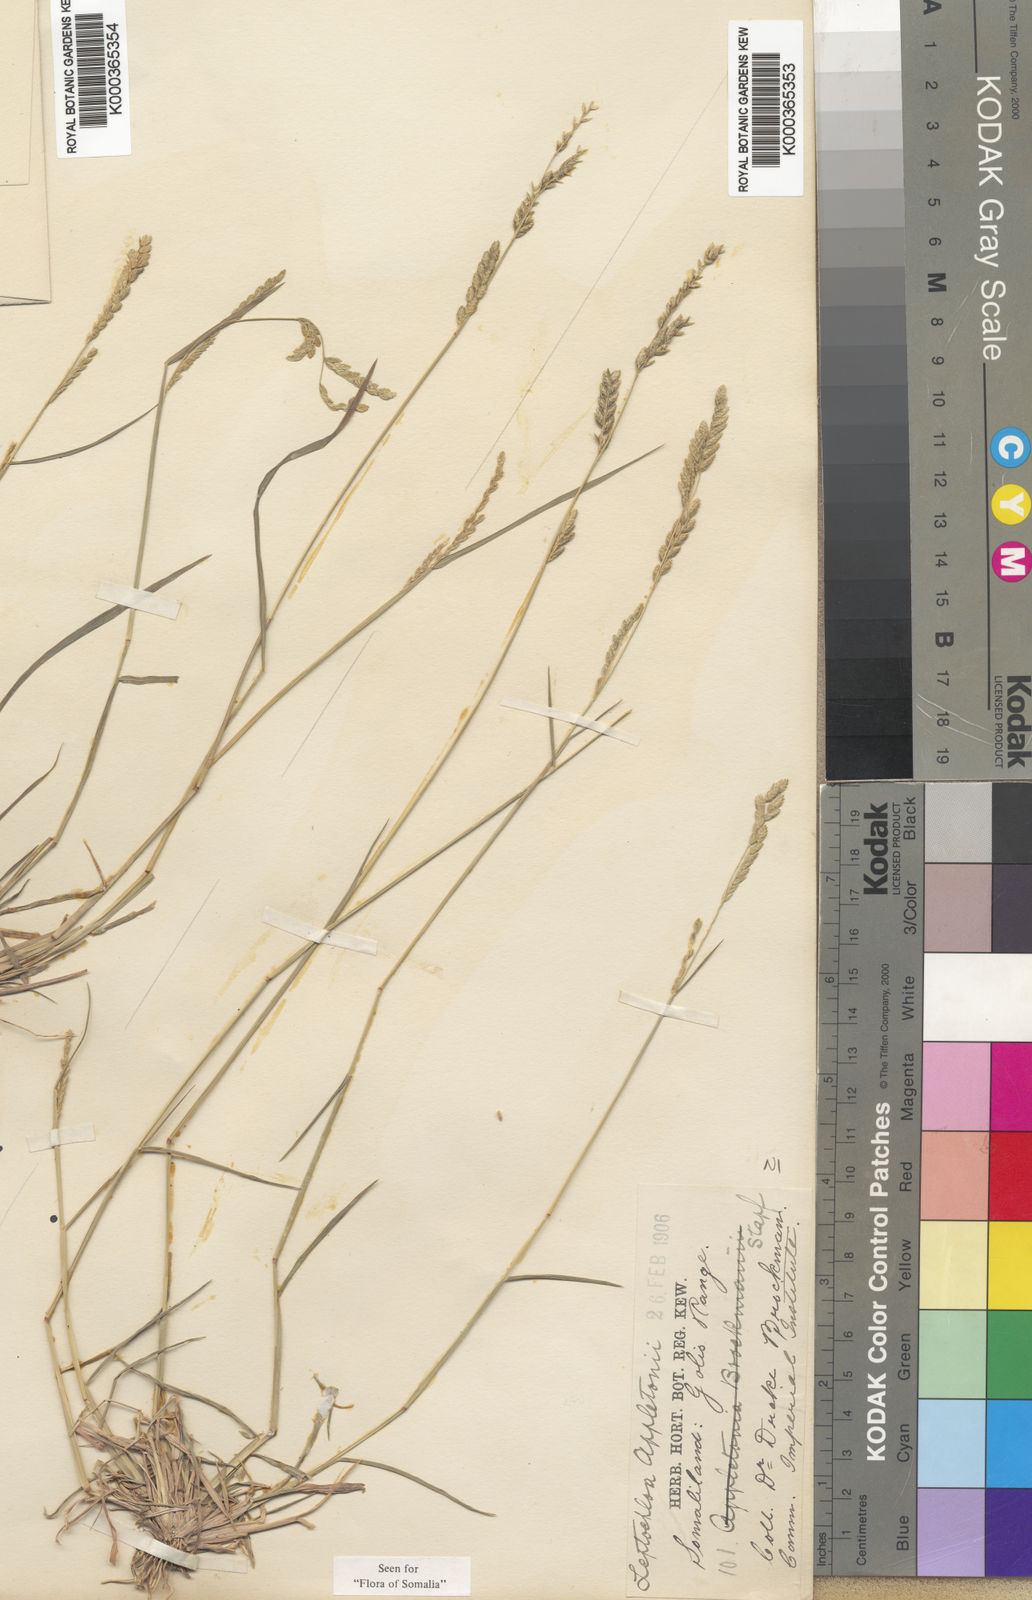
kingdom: Plantae
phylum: Tracheophyta
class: Liliopsida
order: Poales
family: Poaceae
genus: Disakisperma
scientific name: Disakisperma yemenicum
